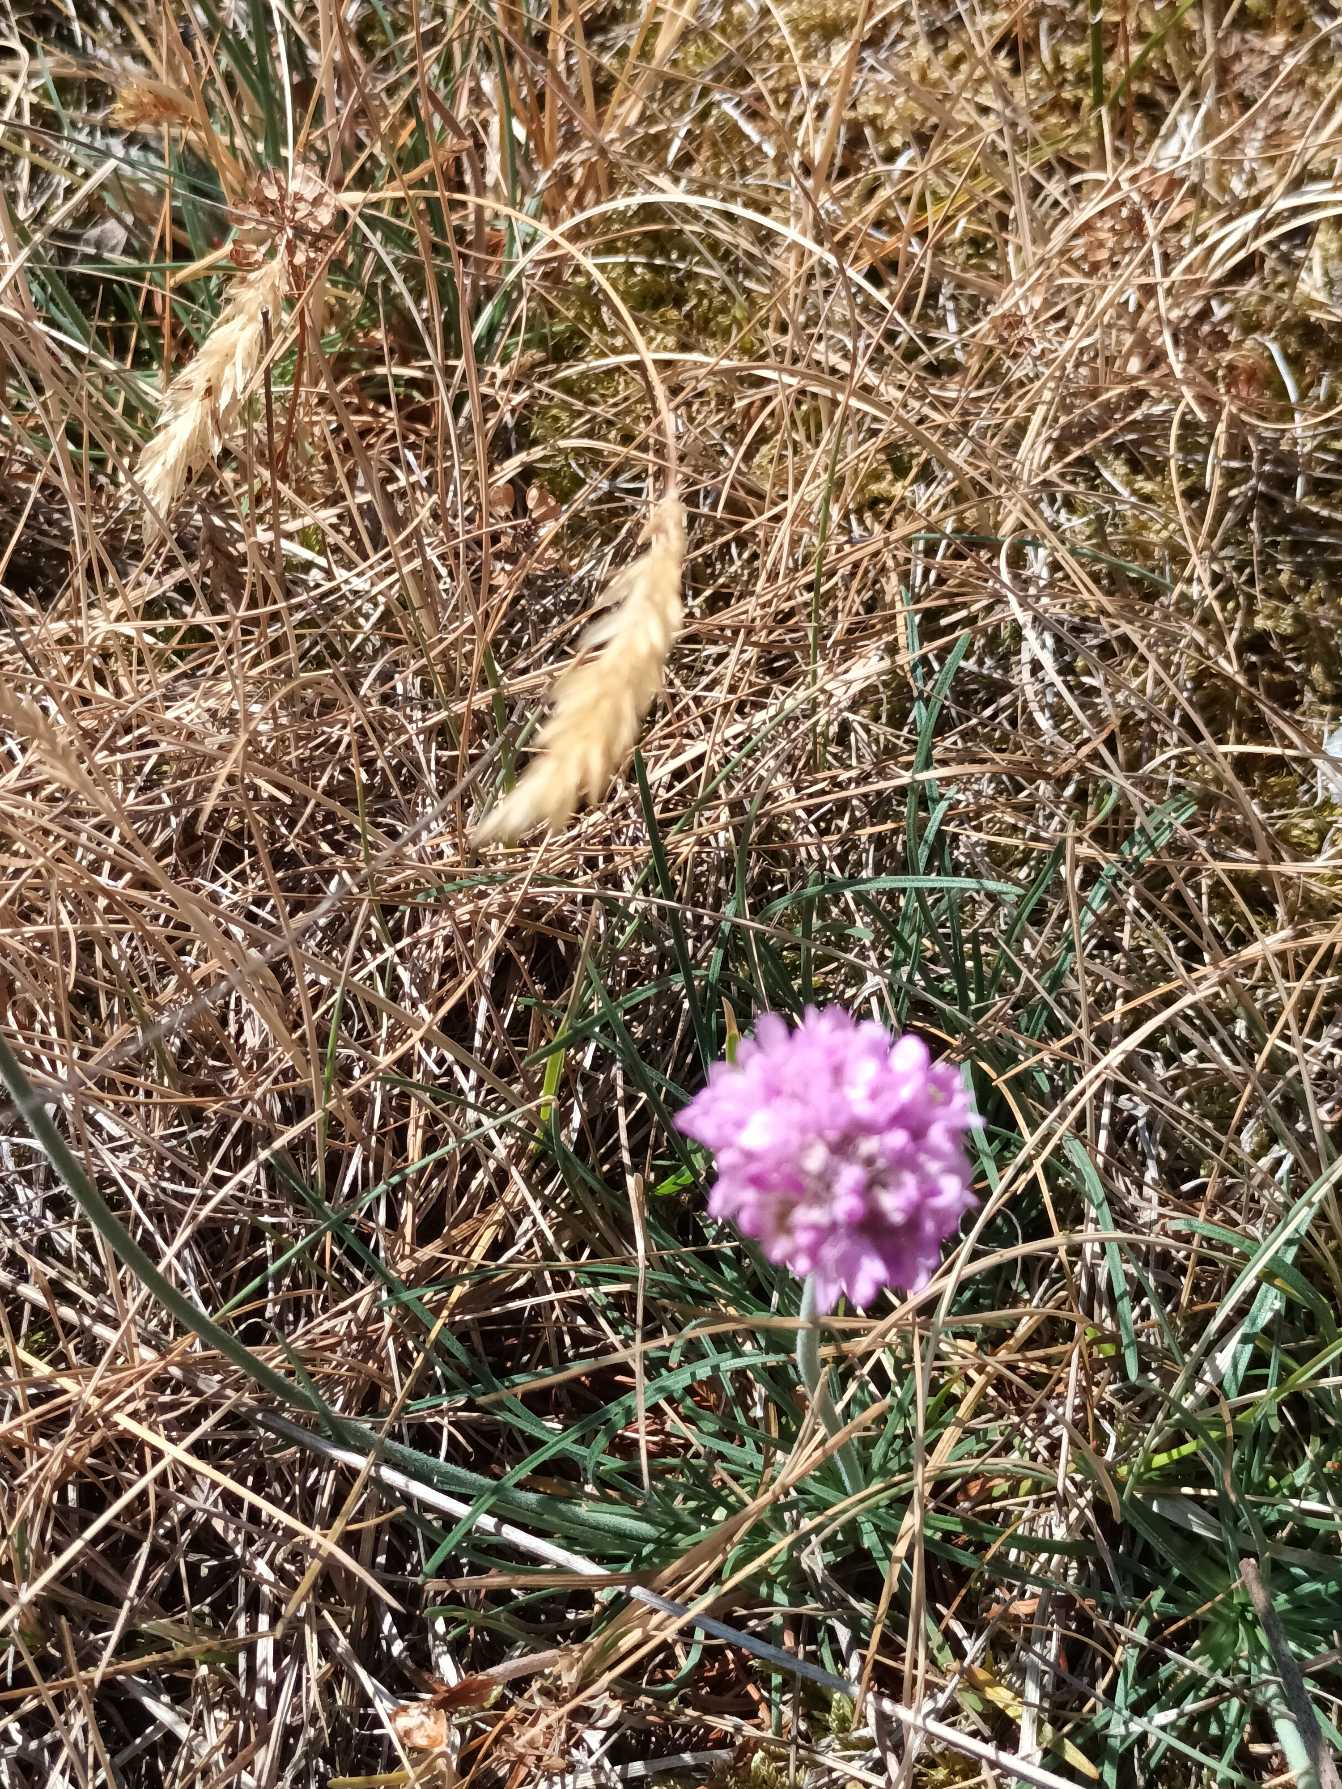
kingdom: Plantae
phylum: Tracheophyta
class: Magnoliopsida
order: Caryophyllales
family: Plumbaginaceae
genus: Armeria
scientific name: Armeria maritima
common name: Engelskgræs
